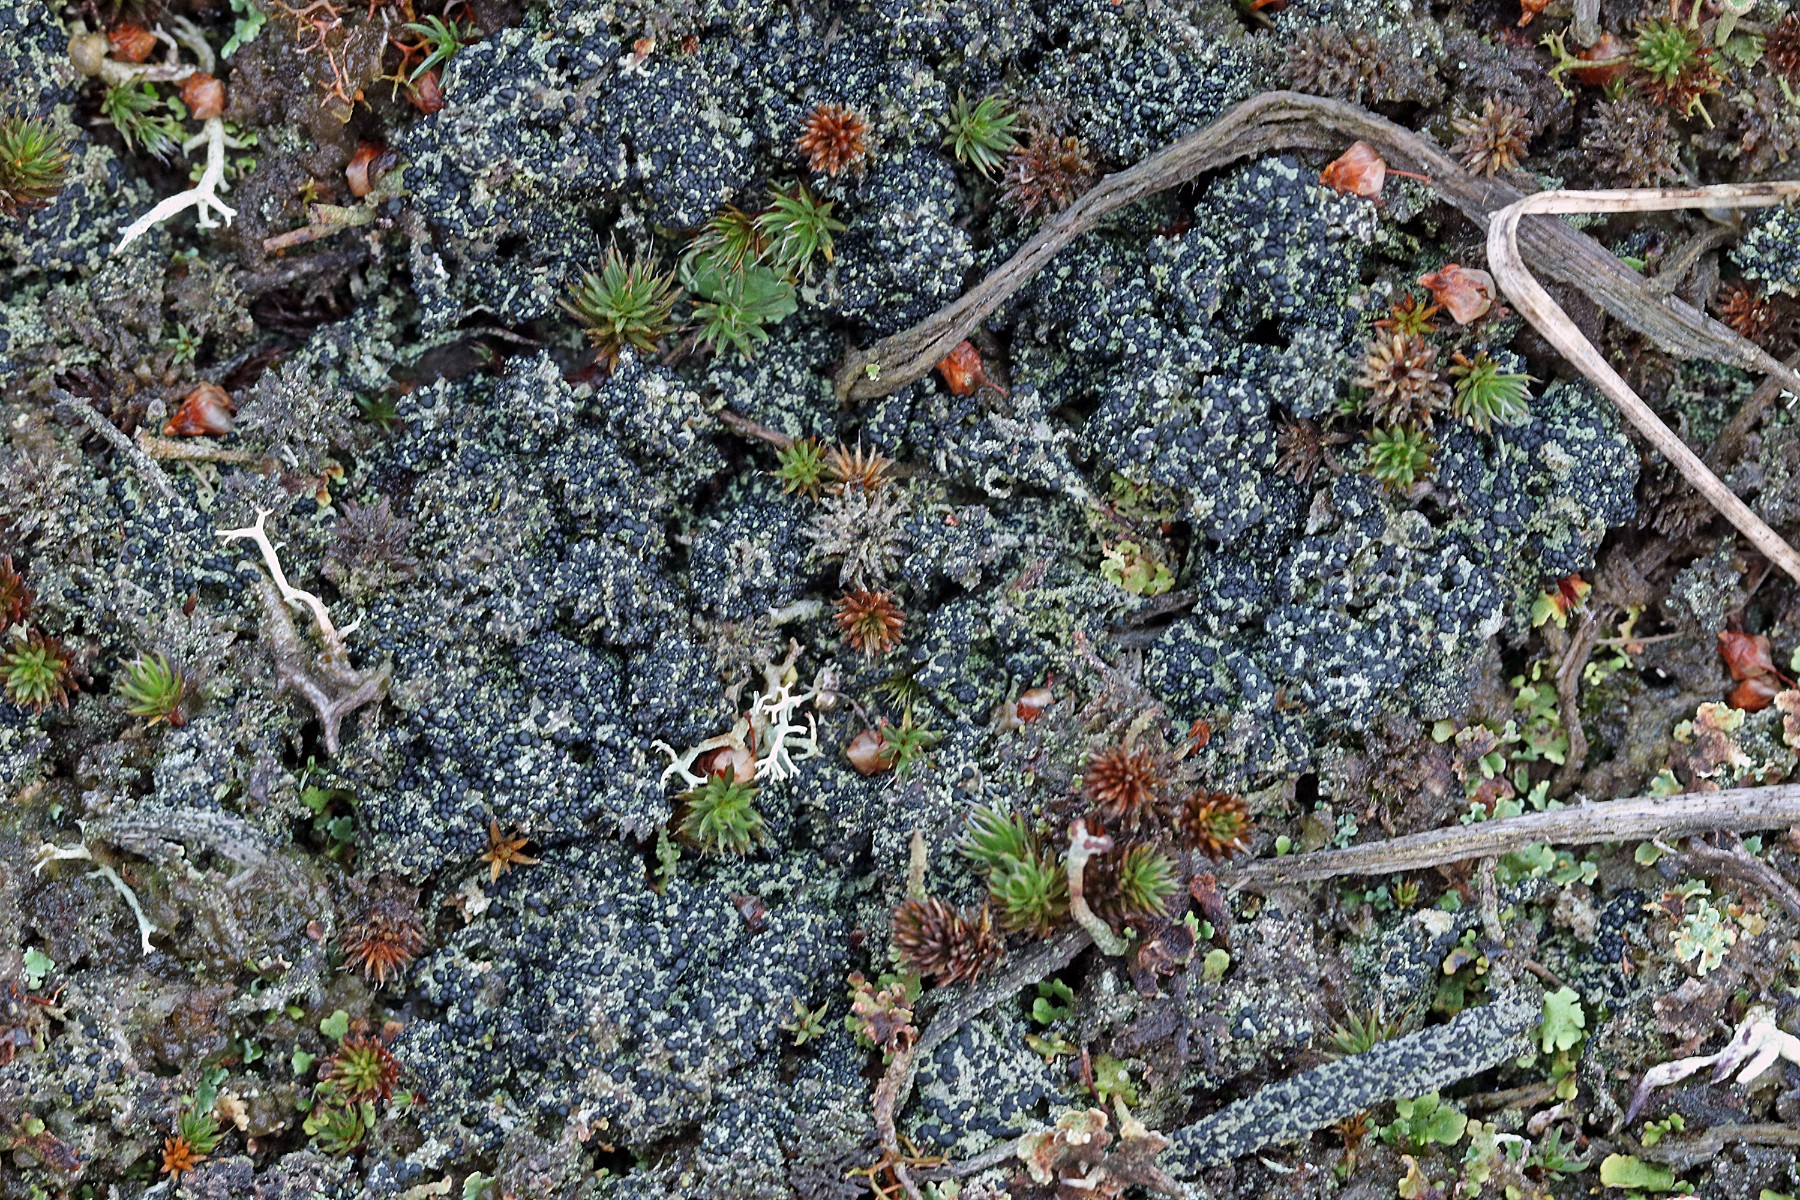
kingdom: Fungi
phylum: Ascomycota
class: Lecanoromycetes
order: Lecanorales
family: Byssolomataceae
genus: Micarea
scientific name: Micarea lignaria
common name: tørve-knaplav
